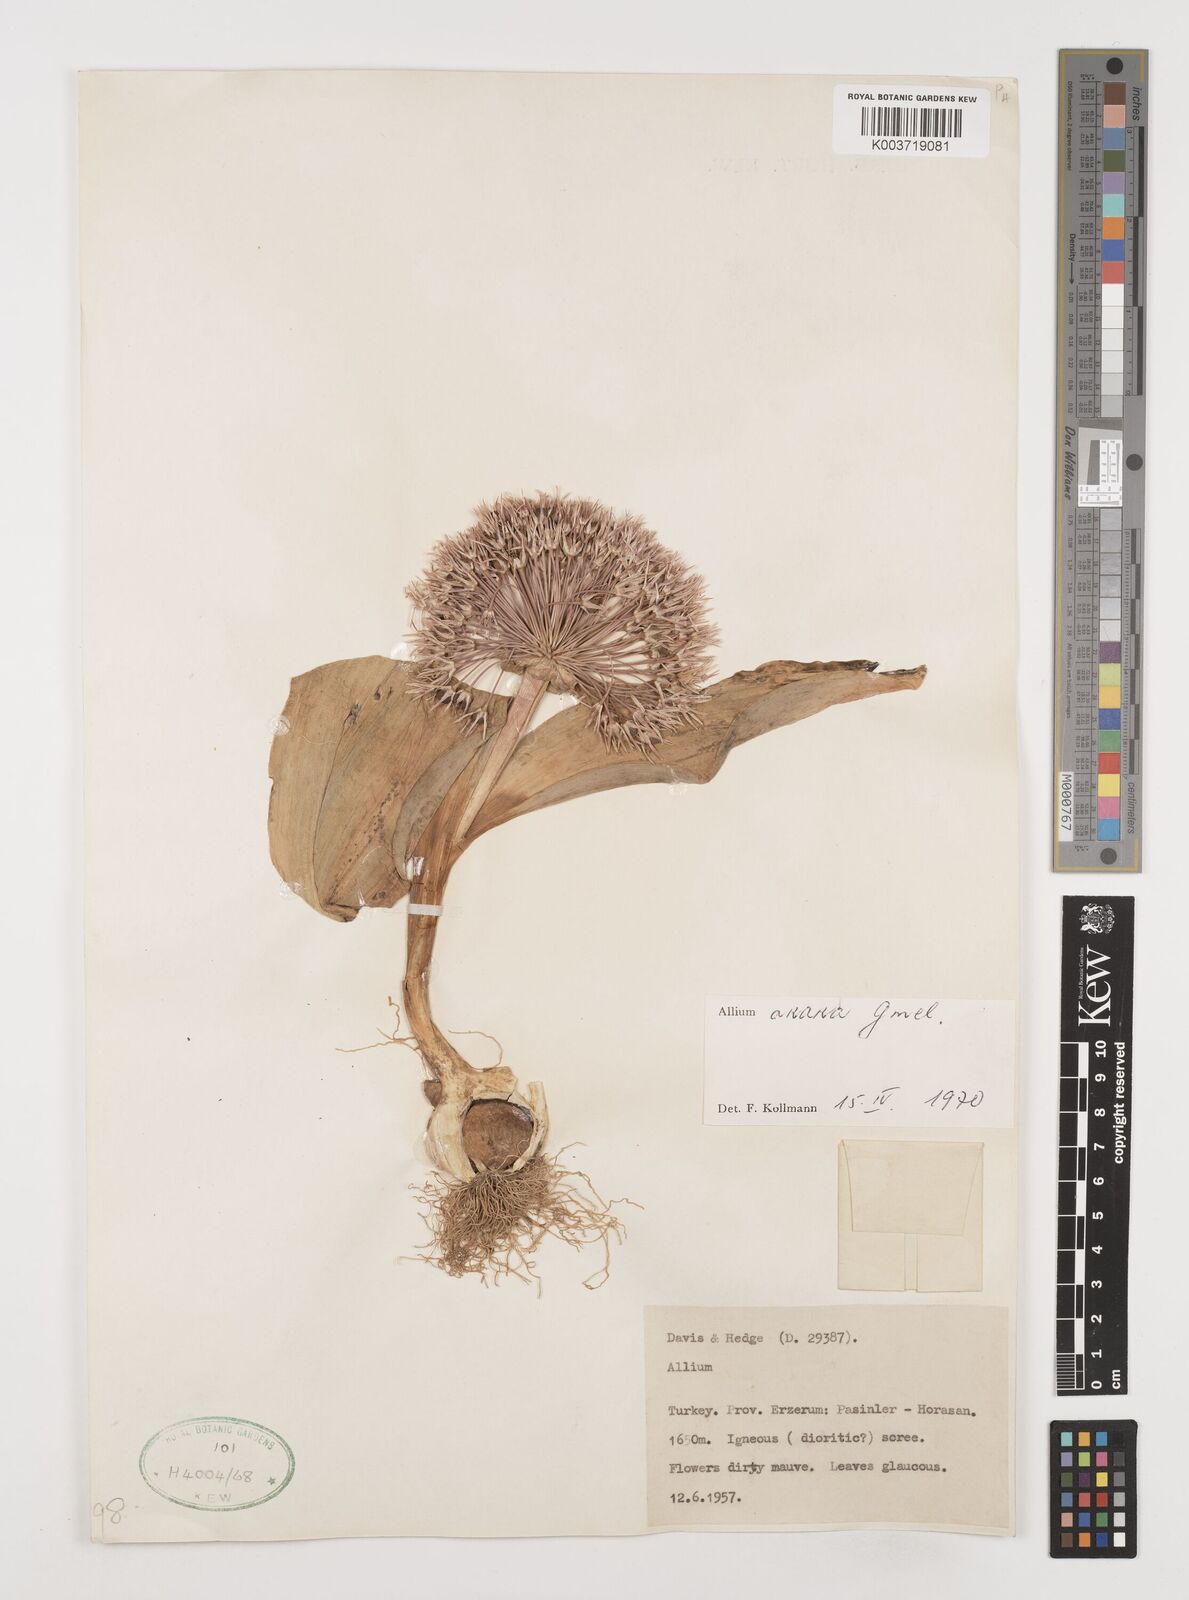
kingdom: Plantae
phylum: Tracheophyta
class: Liliopsida
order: Asparagales
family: Amaryllidaceae
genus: Allium
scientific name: Allium akaka
